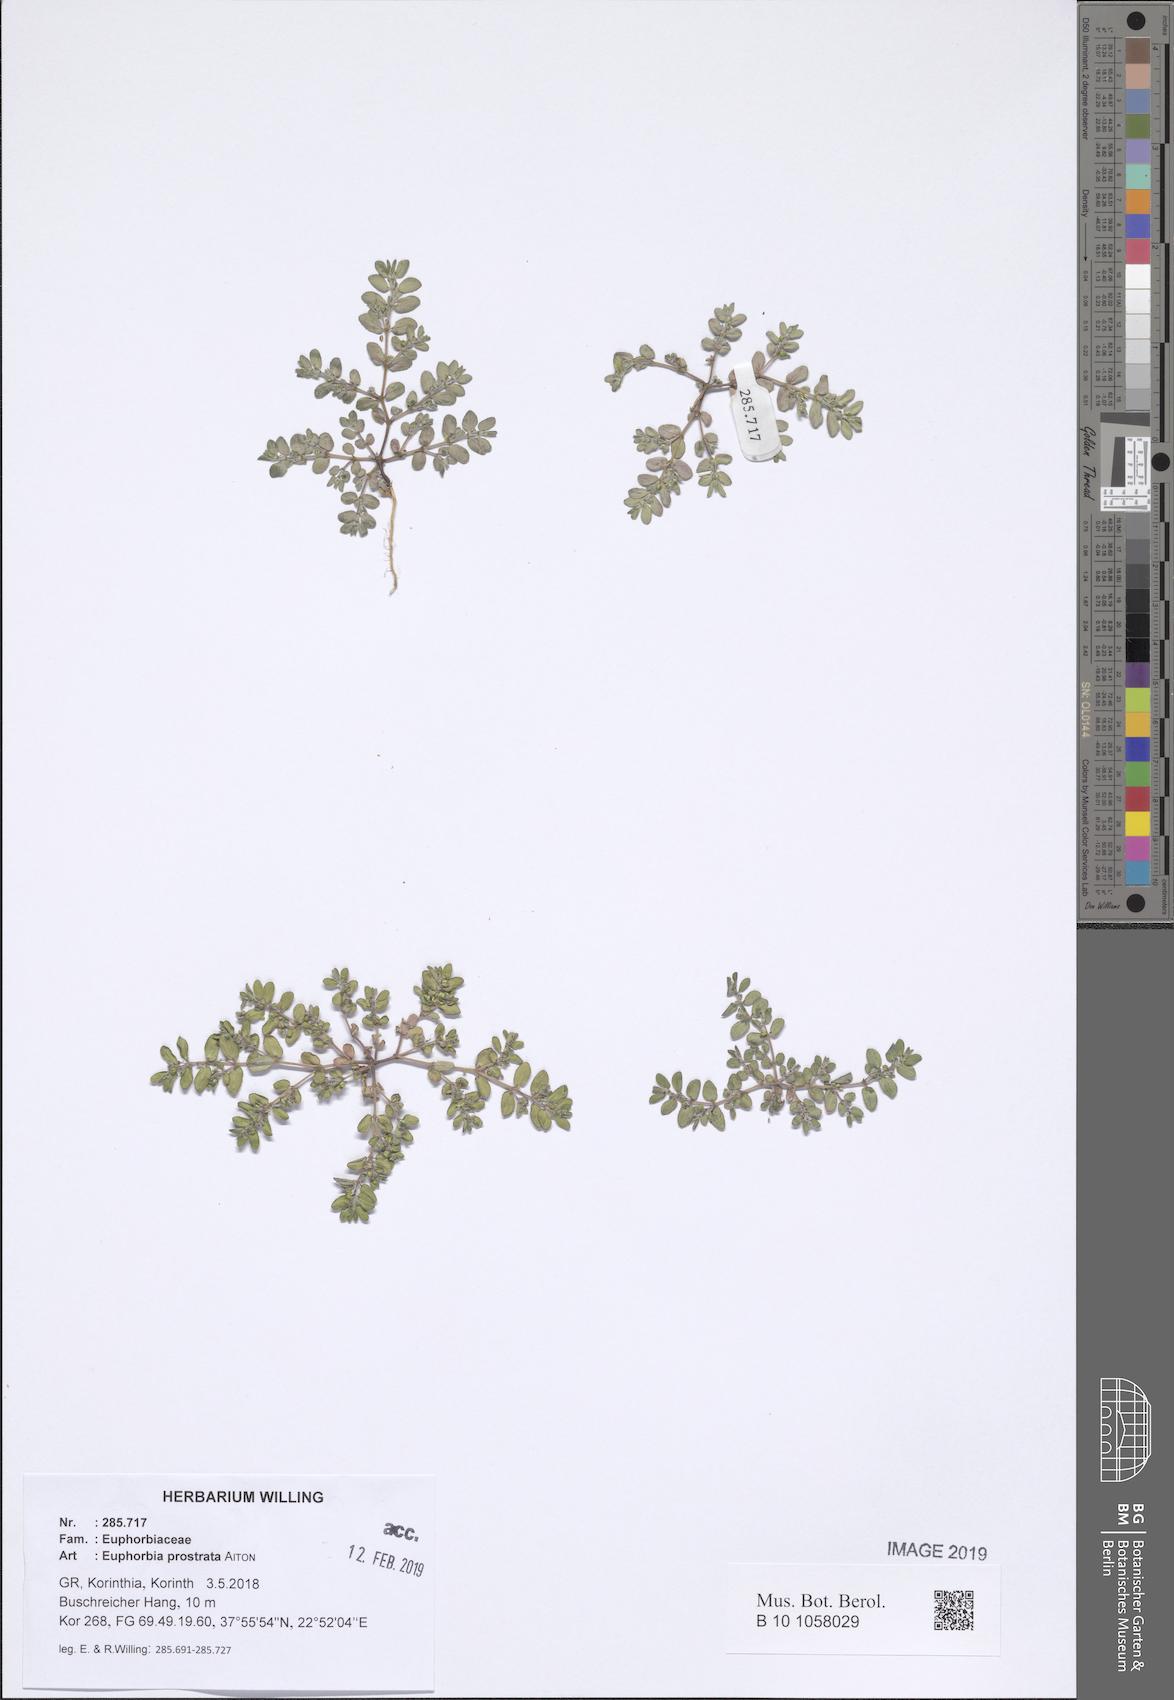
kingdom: Plantae
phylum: Tracheophyta
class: Magnoliopsida
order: Malpighiales
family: Euphorbiaceae
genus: Euphorbia
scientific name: Euphorbia prostrata
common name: Prostrate sandmat
